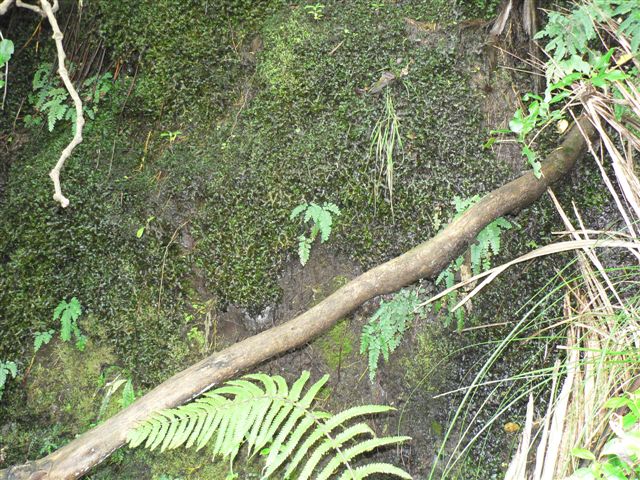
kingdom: Plantae
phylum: Marchantiophyta
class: Marchantiopsida
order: Marchantiales
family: Dumortieraceae
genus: Dumortiera
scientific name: Dumortiera hirsuta
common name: Dumortier's liverwort
